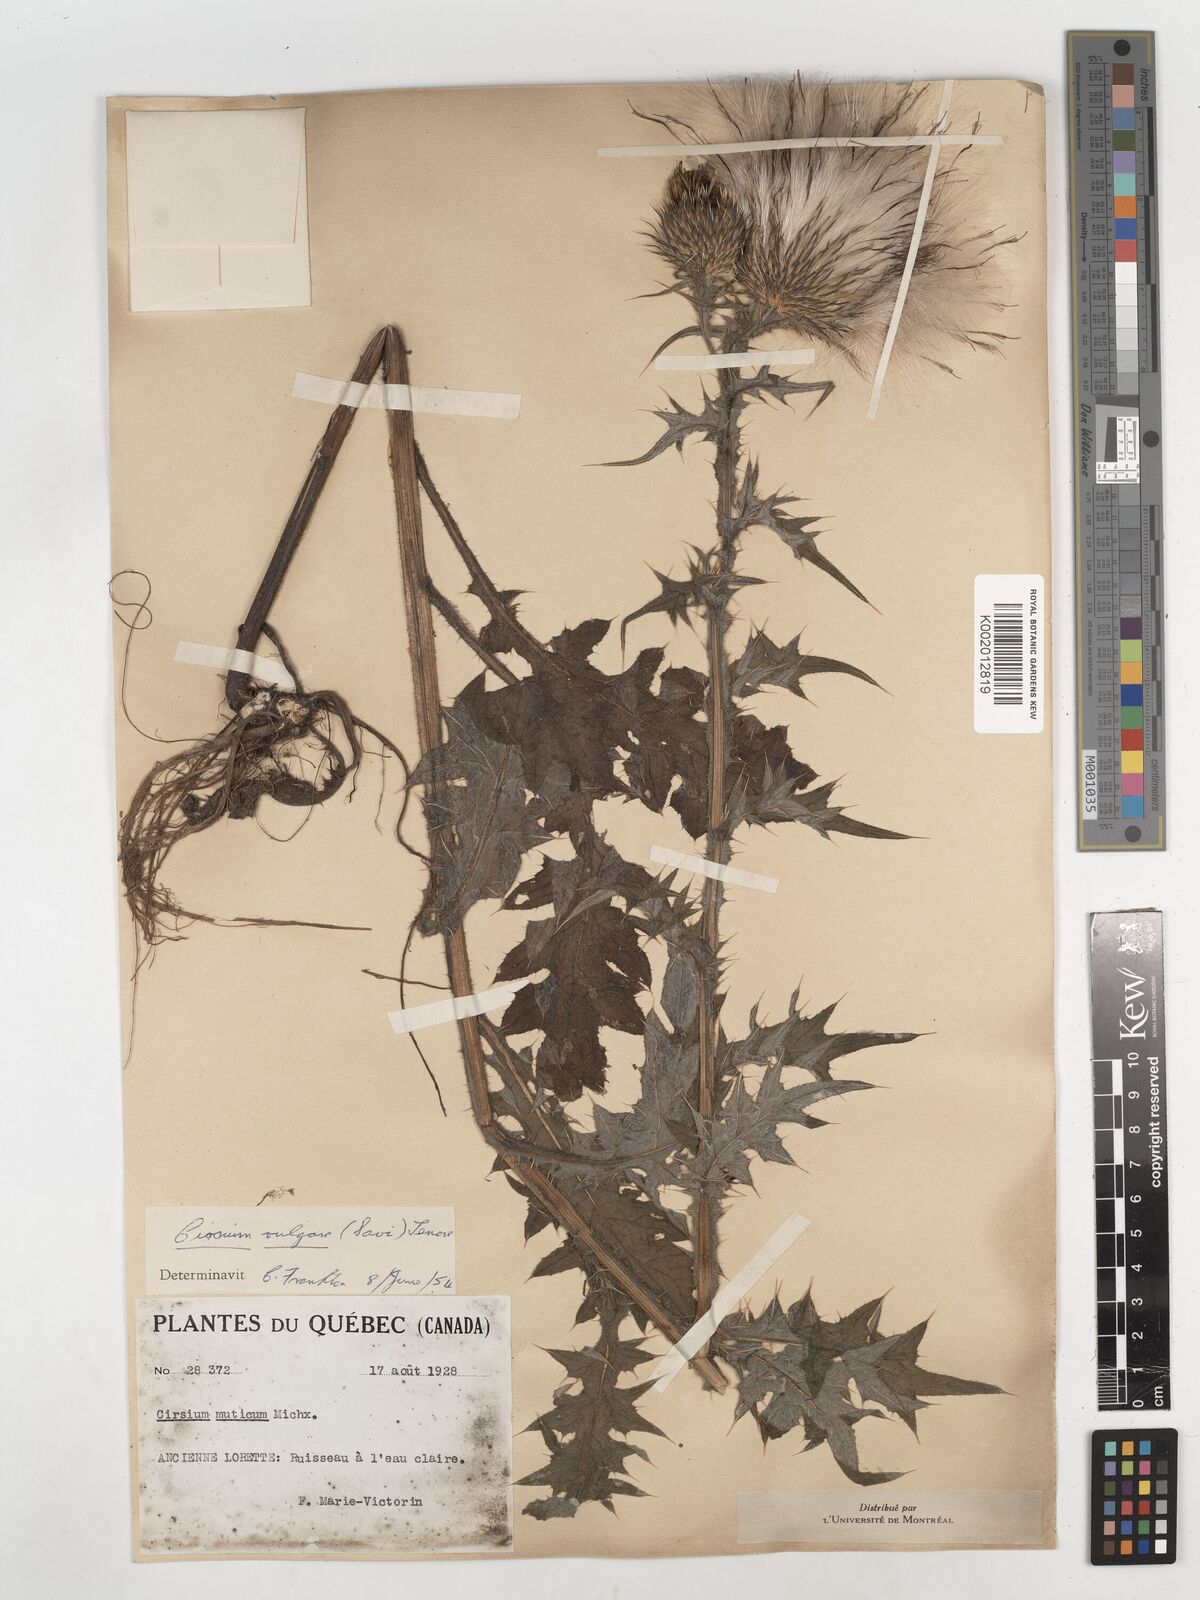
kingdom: Plantae
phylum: Tracheophyta
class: Magnoliopsida
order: Asterales
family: Asteraceae
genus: Cirsium
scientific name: Cirsium vulgare
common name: Bull thistle
